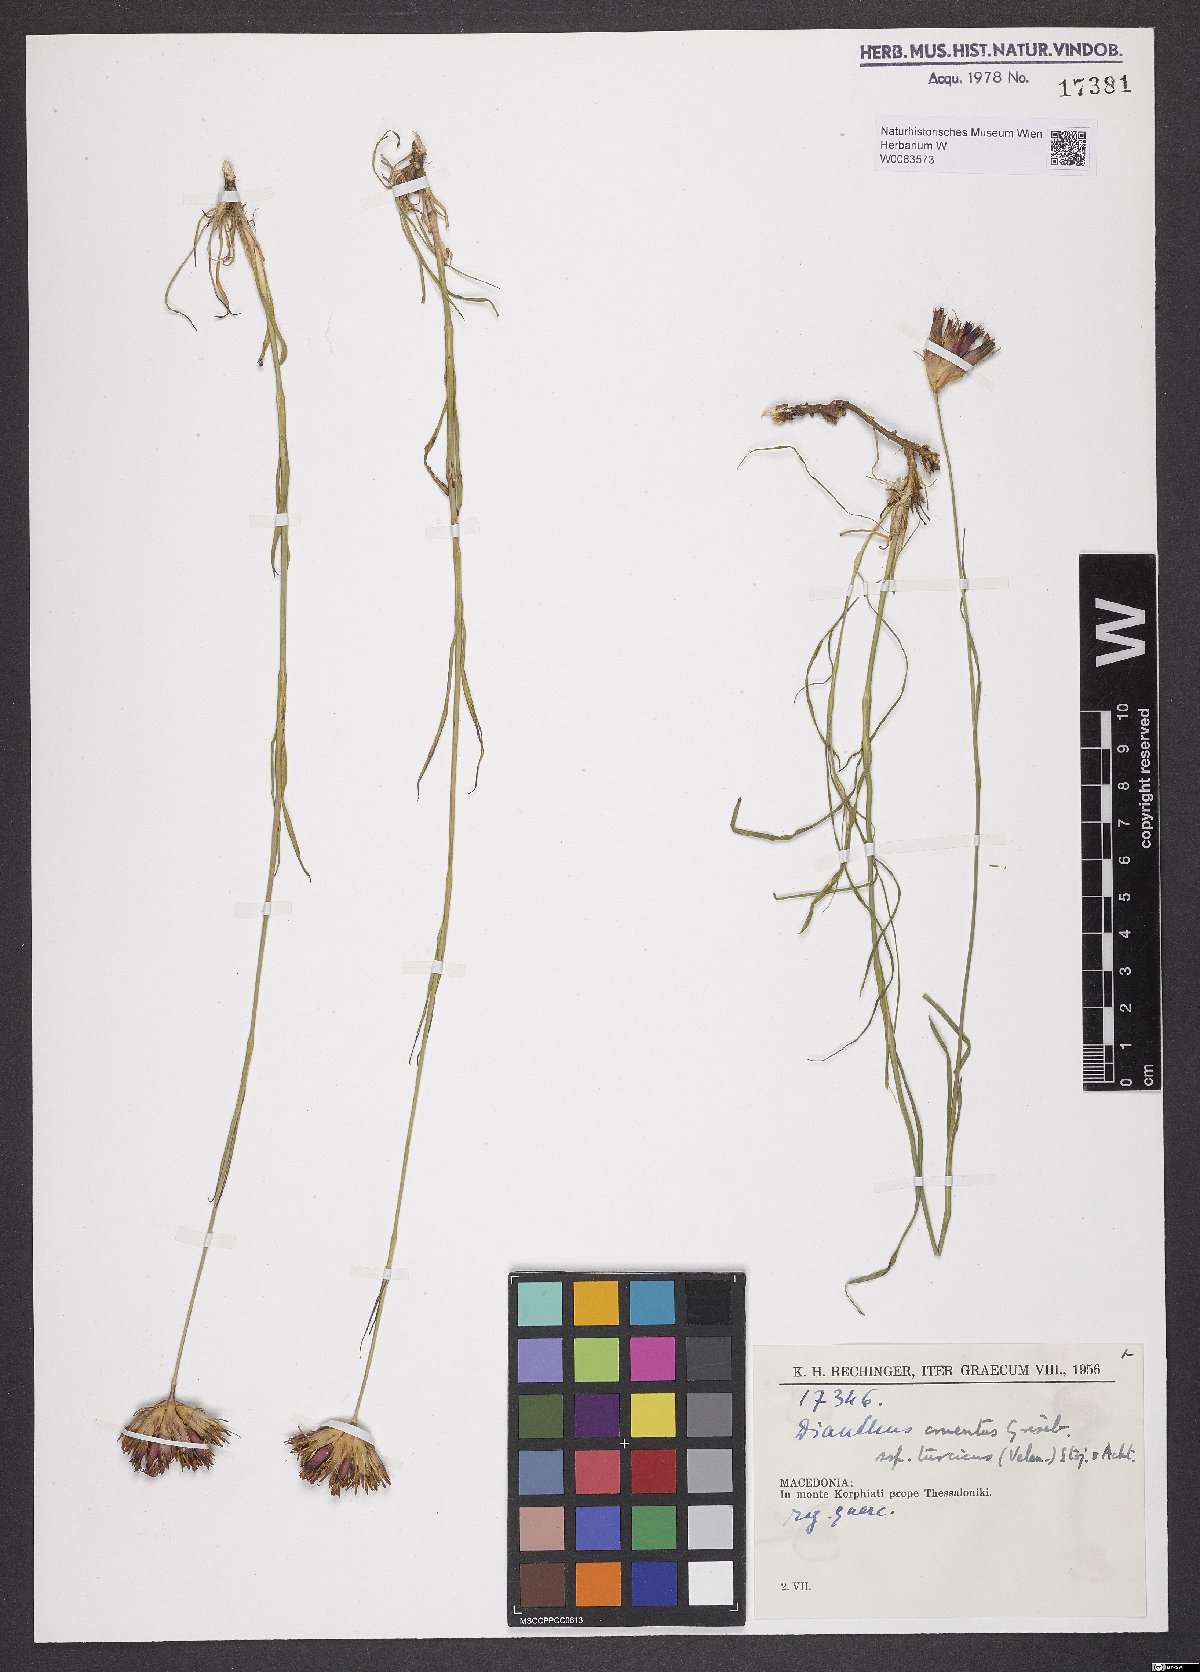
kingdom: Plantae
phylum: Tracheophyta
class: Magnoliopsida
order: Caryophyllales
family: Caryophyllaceae
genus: Dianthus
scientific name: Dianthus cruentus
